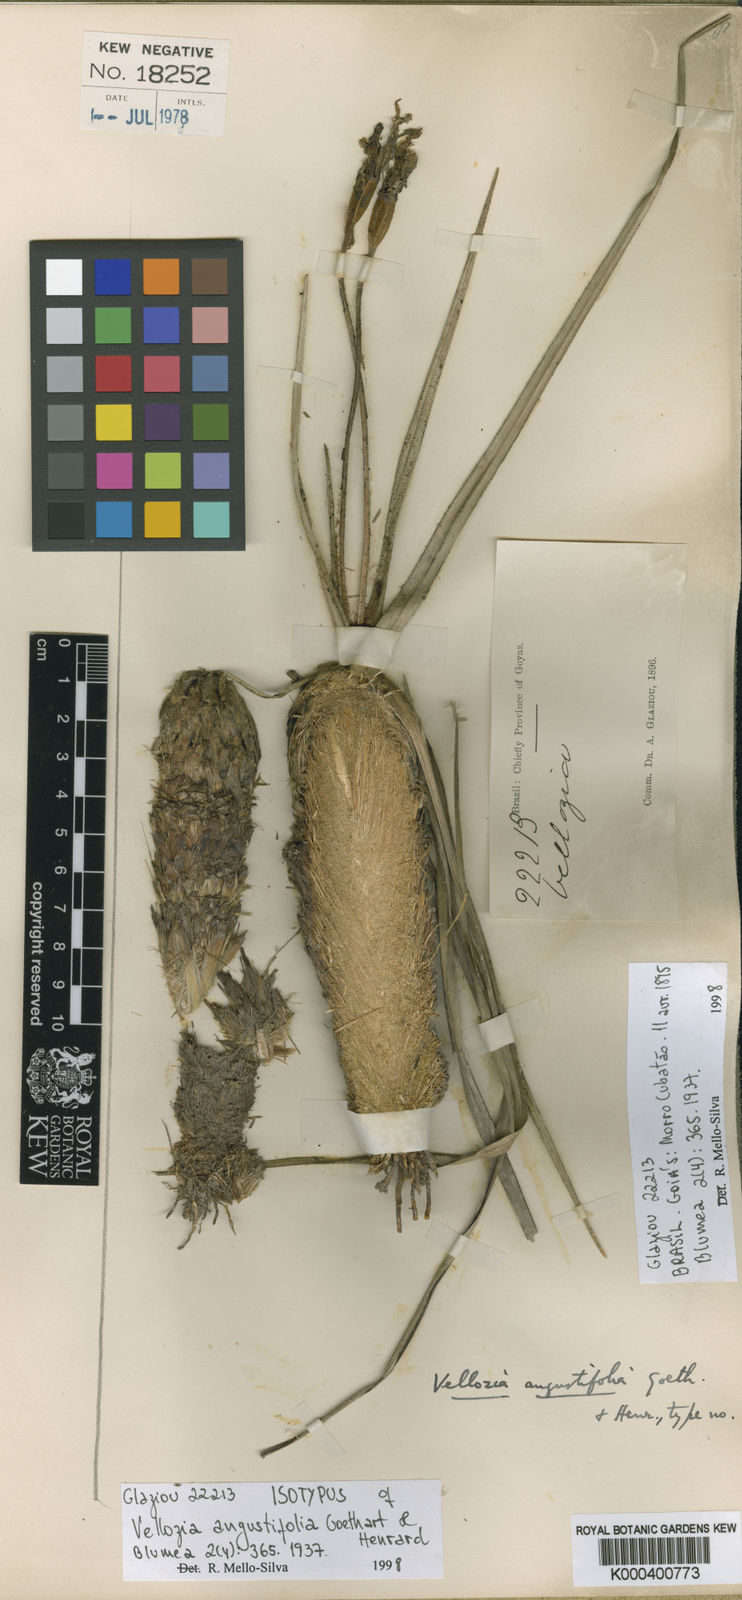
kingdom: Plantae
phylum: Tracheophyta
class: Liliopsida
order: Pandanales
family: Velloziaceae
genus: Vellozia
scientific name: Vellozia angustifolia
